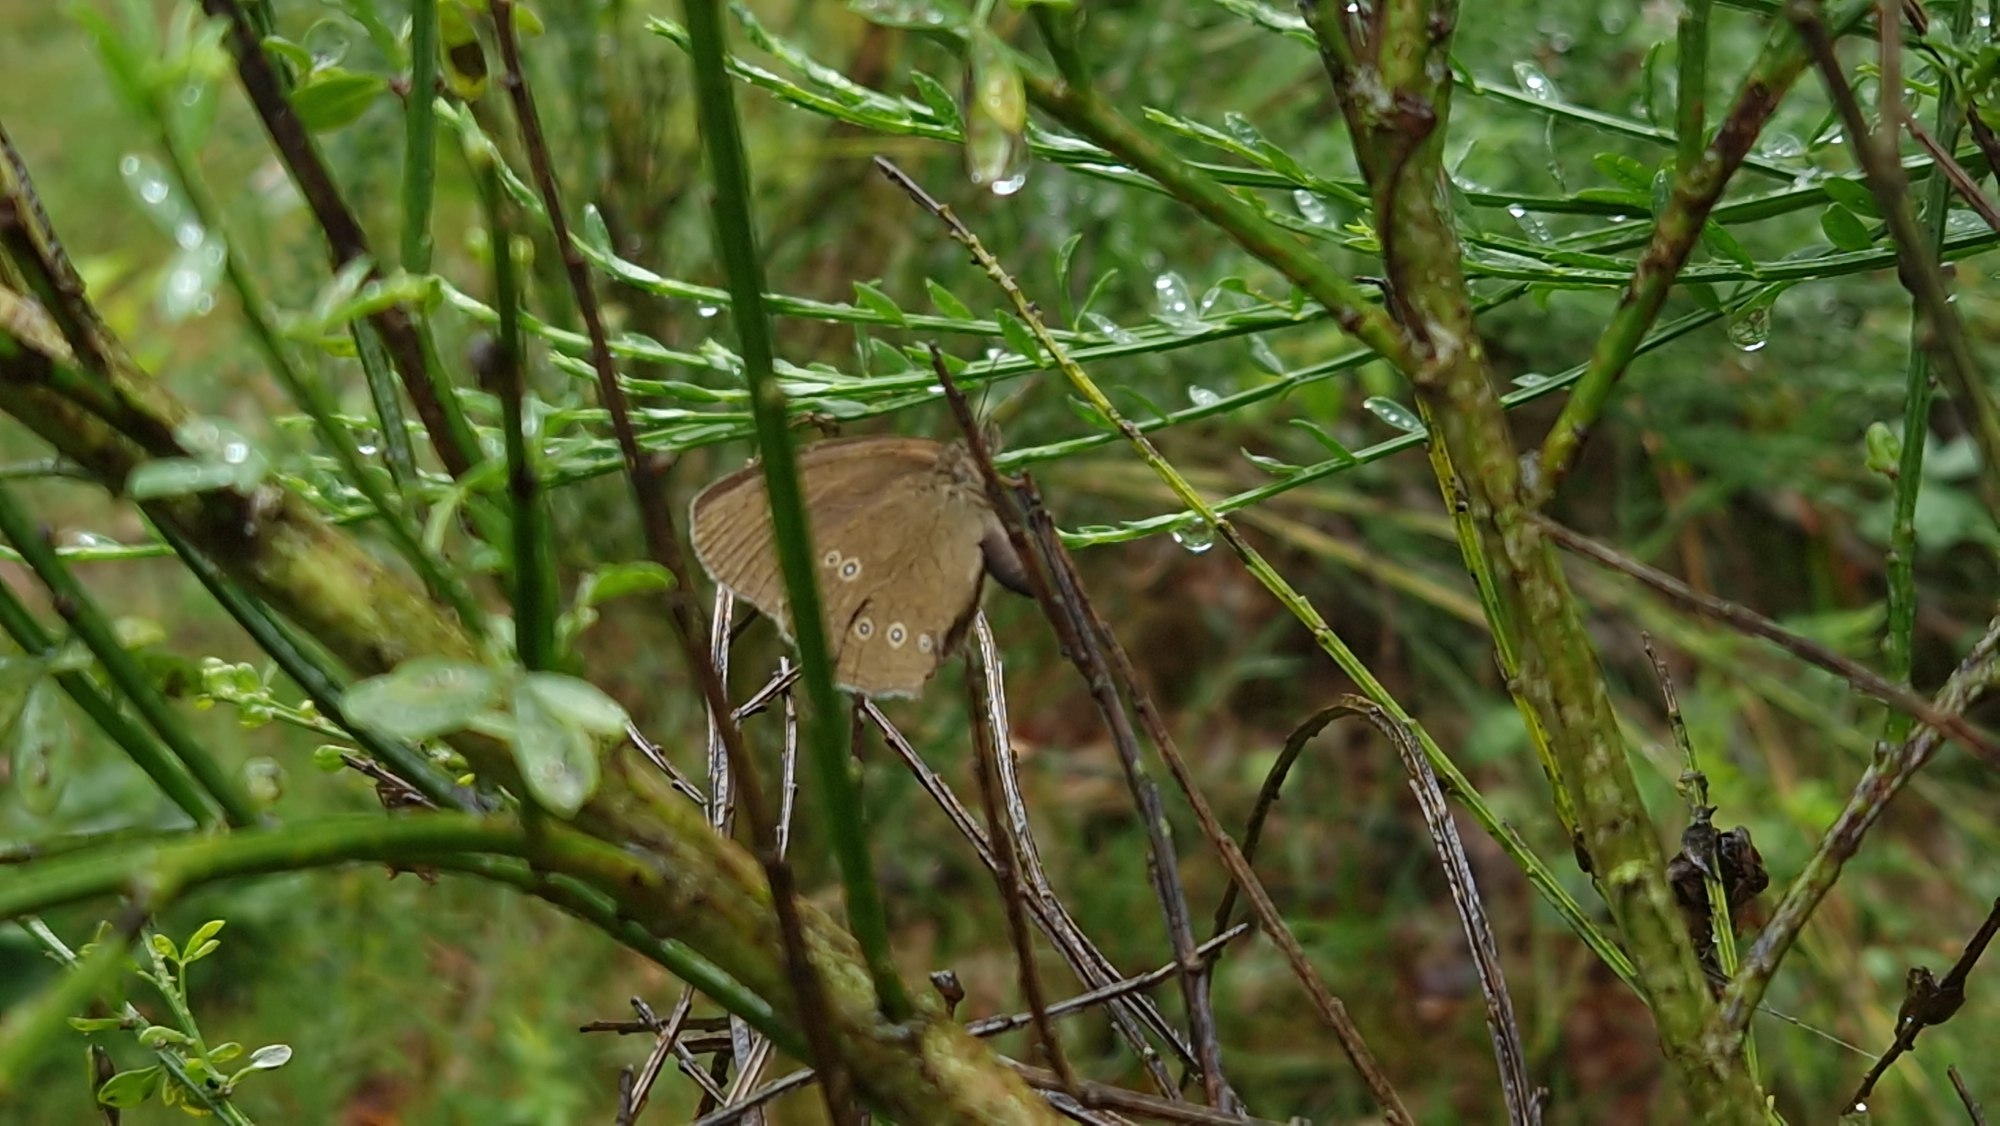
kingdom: Animalia
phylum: Arthropoda
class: Insecta
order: Lepidoptera
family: Nymphalidae
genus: Aphantopus
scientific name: Aphantopus hyperantus
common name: Engrandøje
